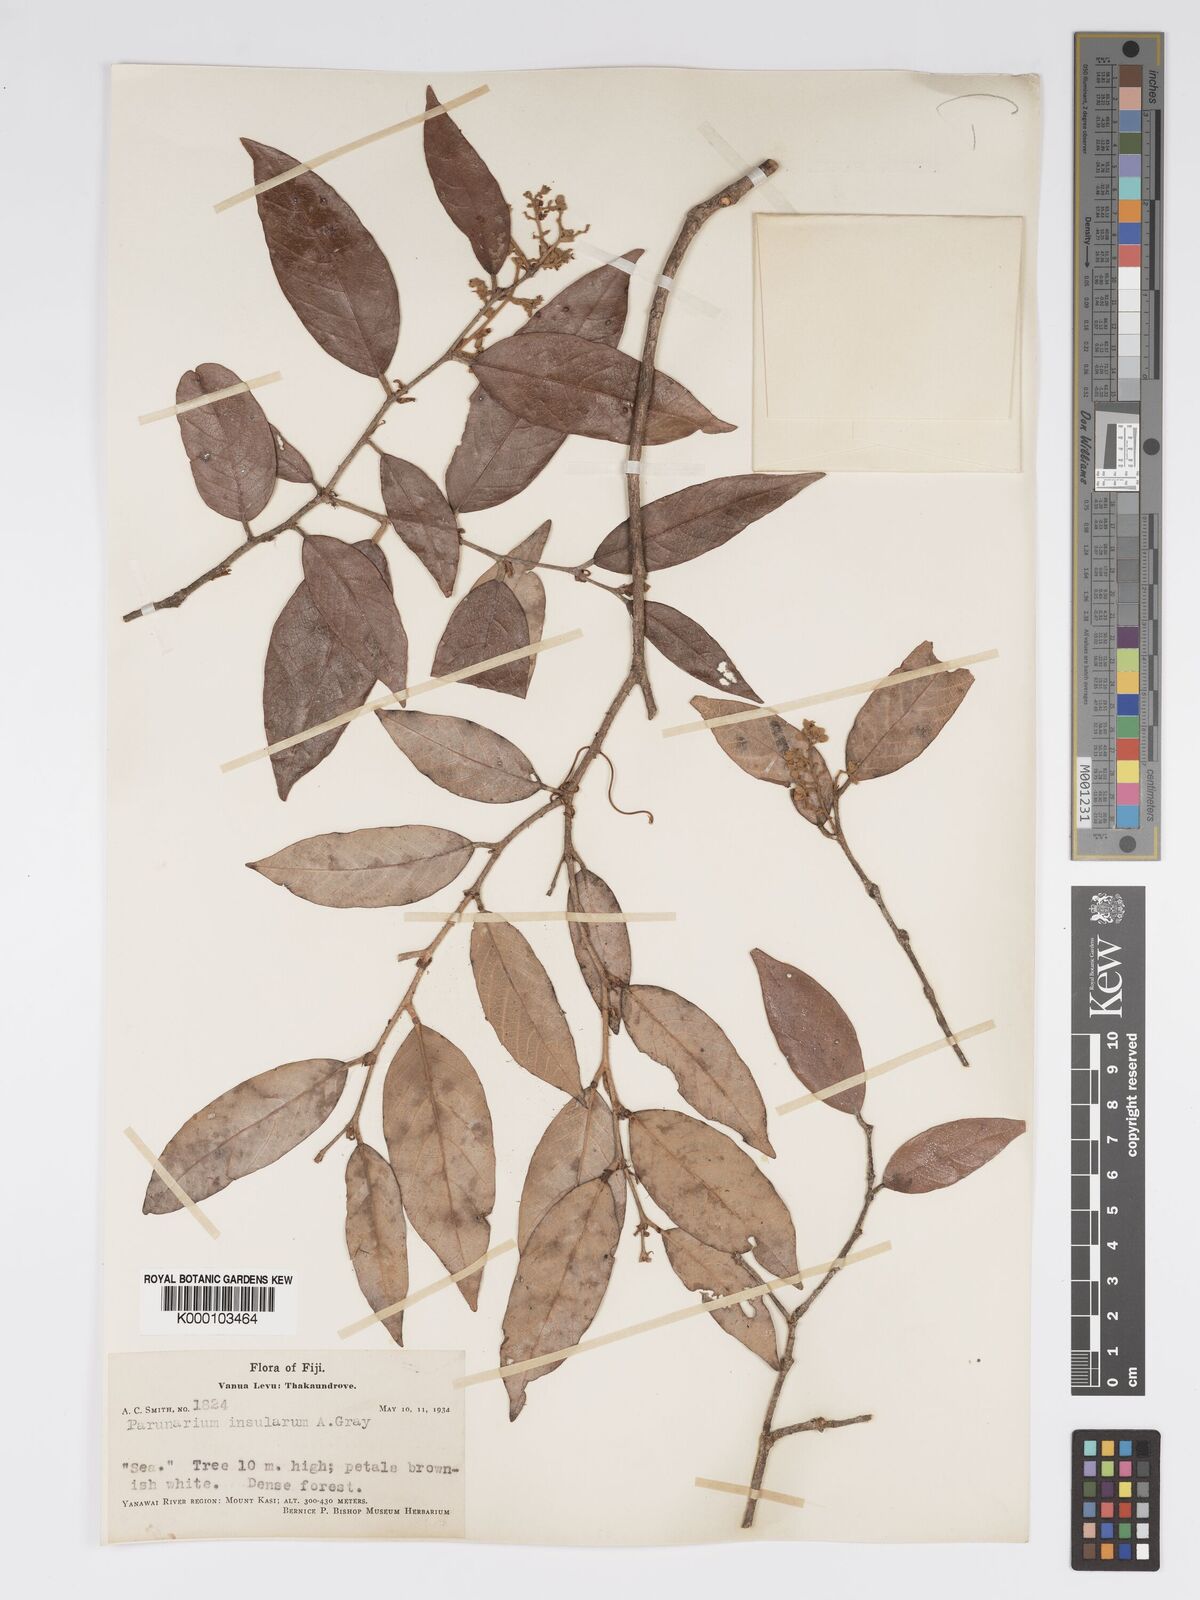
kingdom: Plantae
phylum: Tracheophyta
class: Magnoliopsida
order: Malpighiales
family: Chrysobalanaceae
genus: Parinari
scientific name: Parinari insularum
